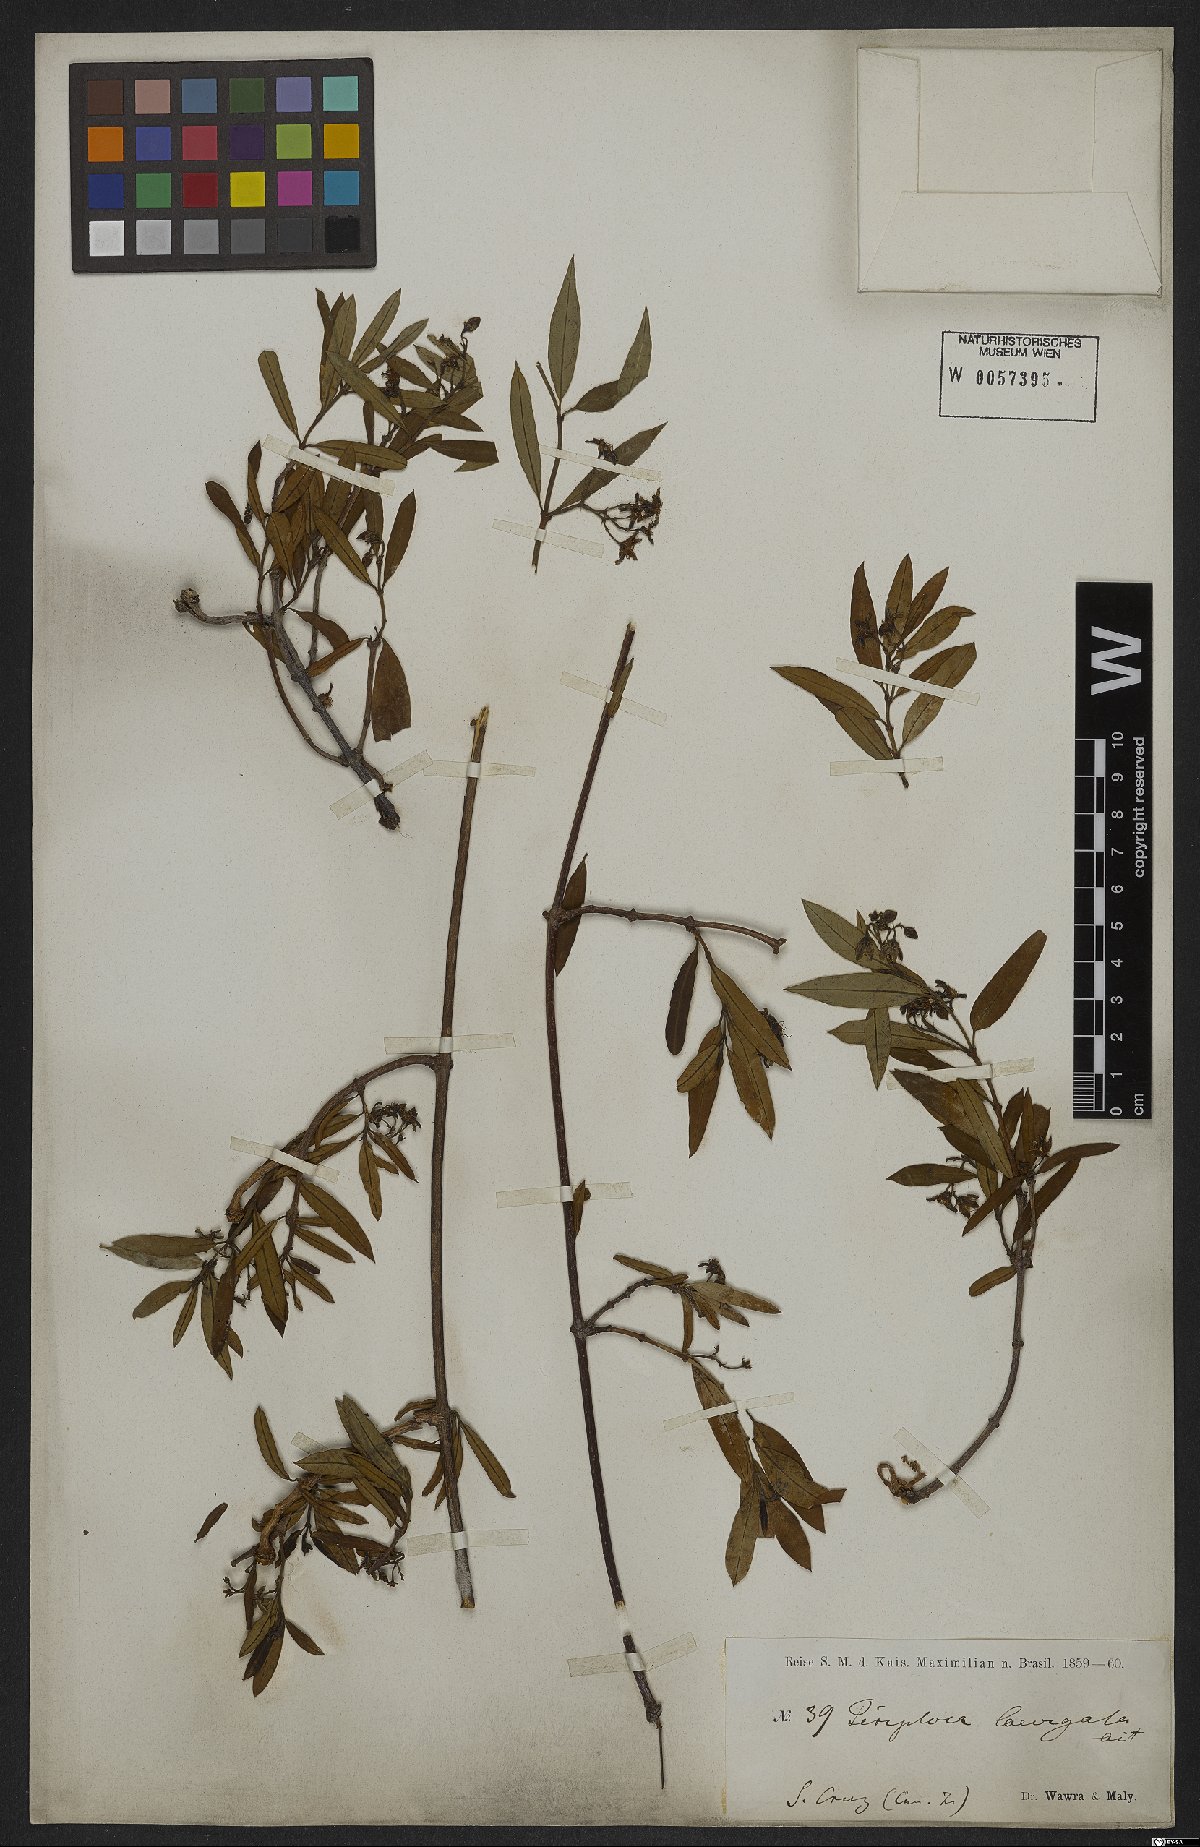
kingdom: Plantae
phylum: Tracheophyta
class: Magnoliopsida
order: Gentianales
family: Apocynaceae
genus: Periploca
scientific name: Periploca laevigata
